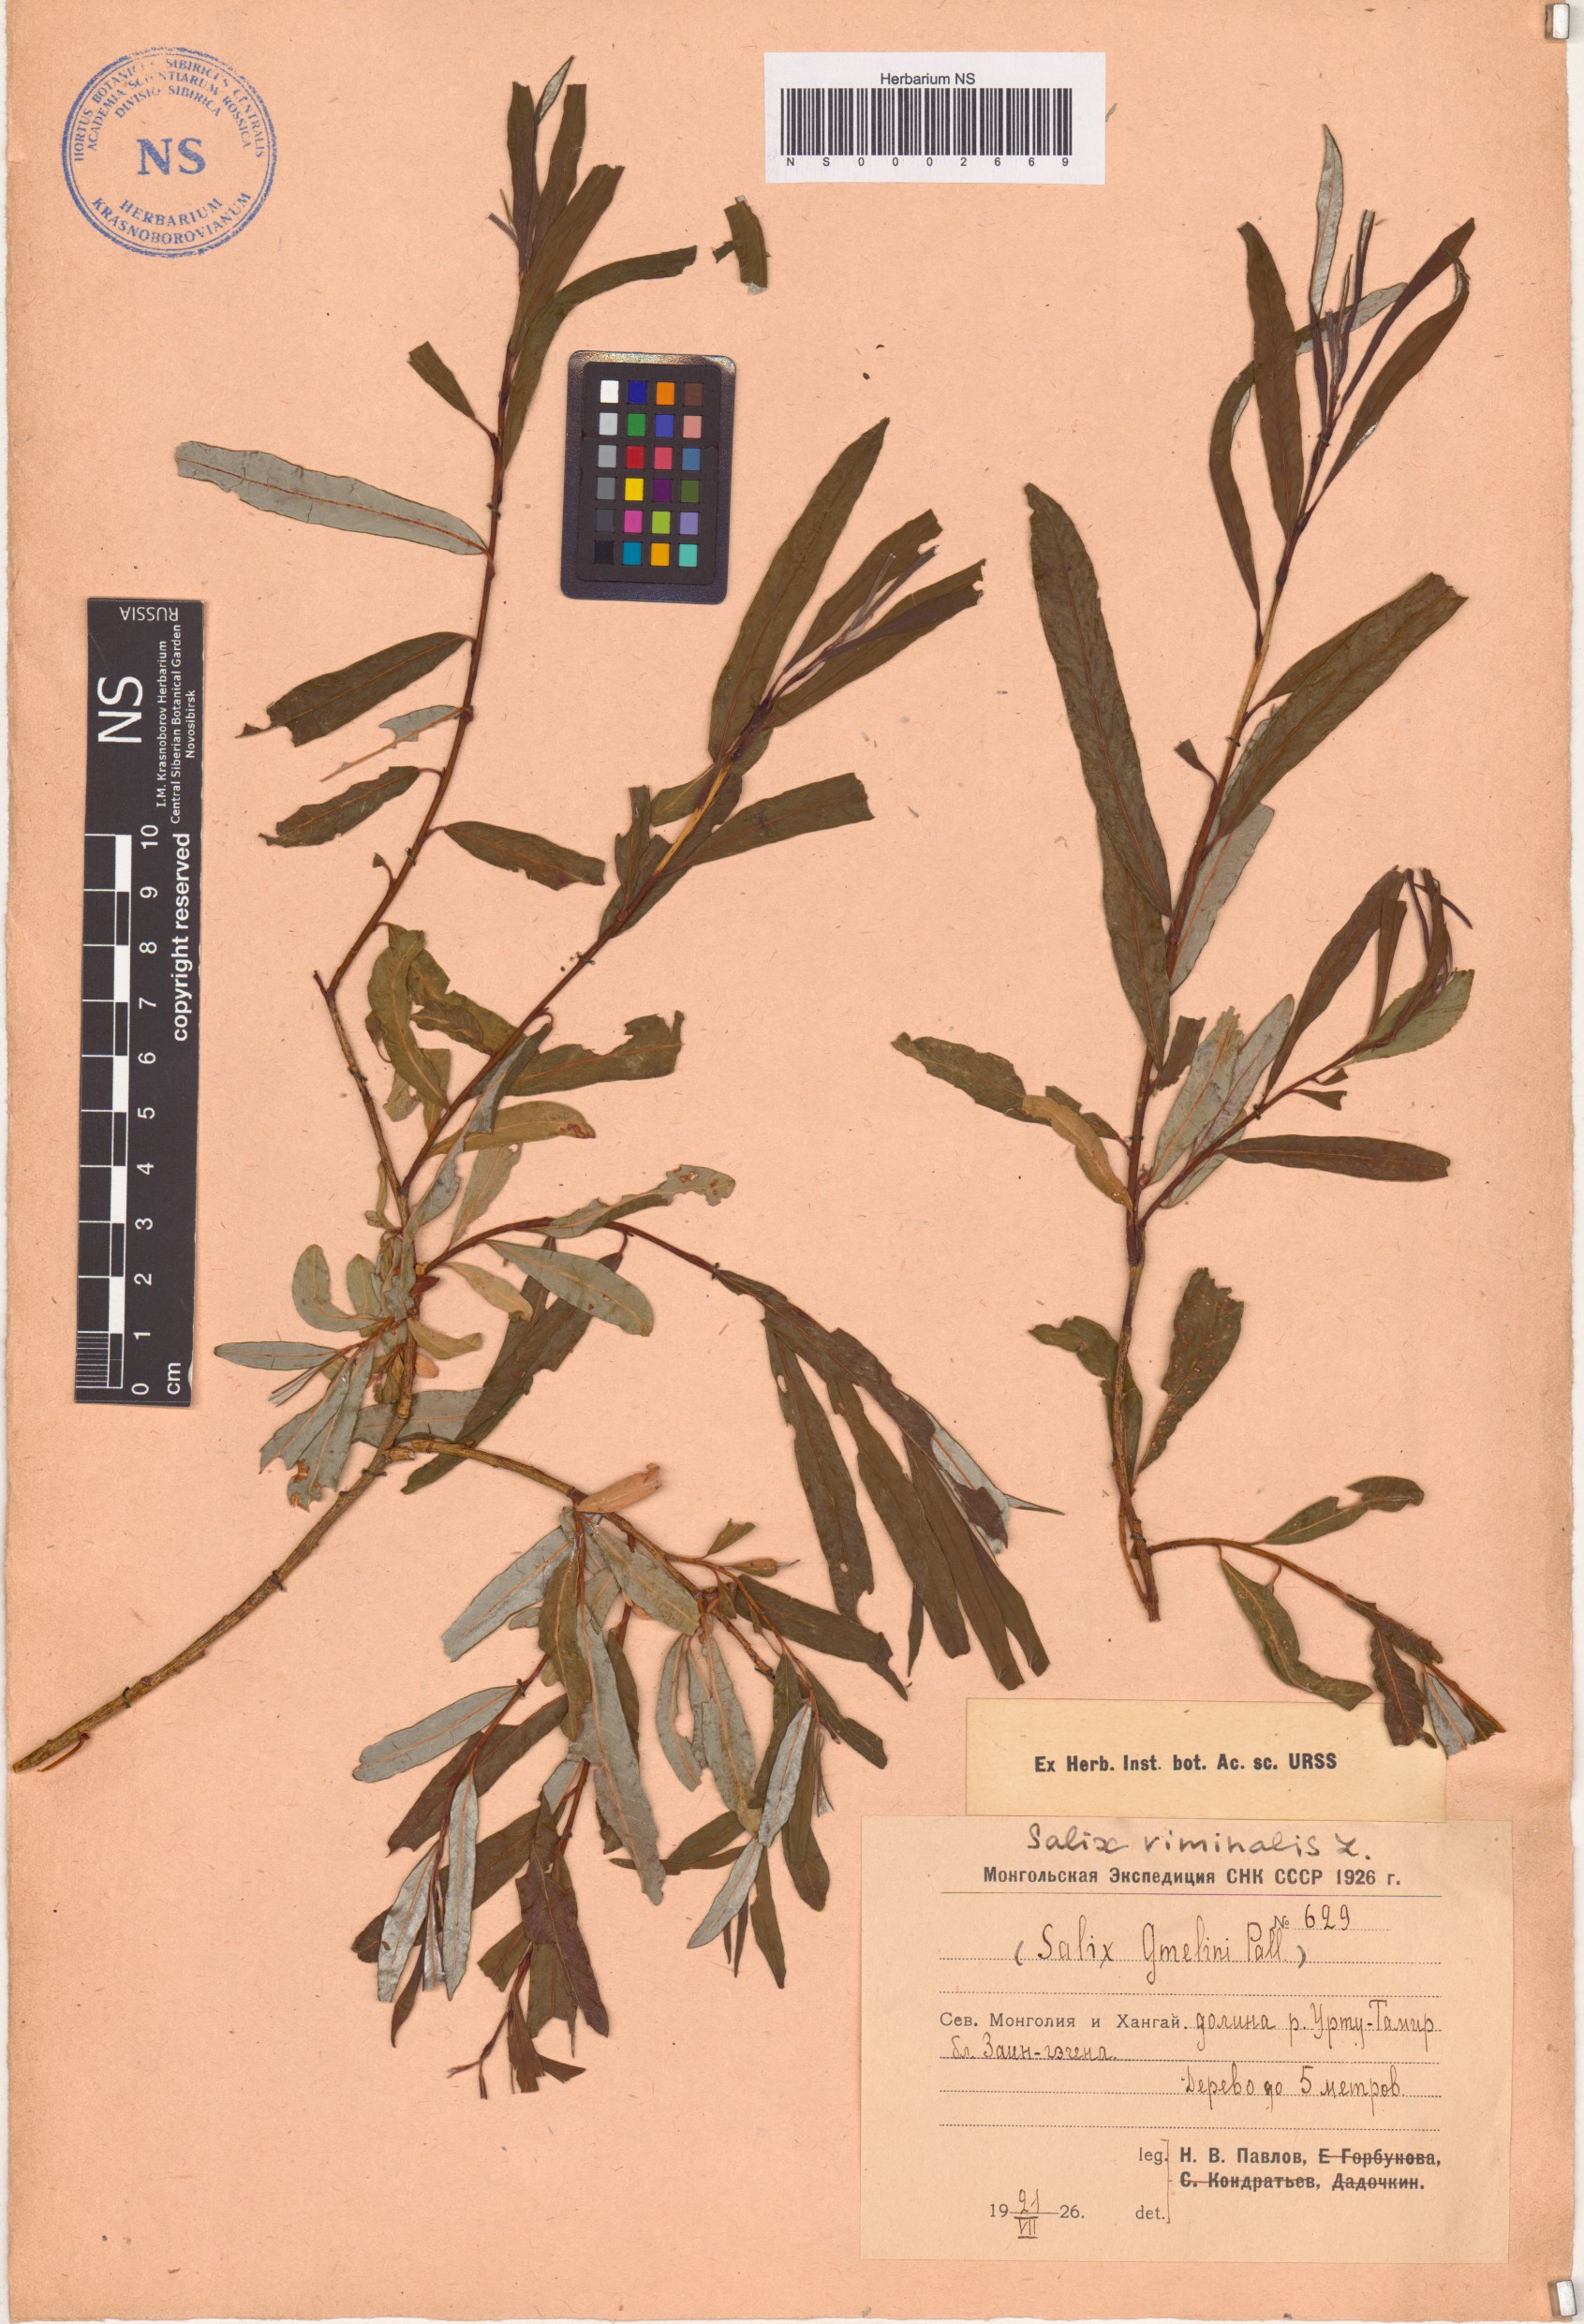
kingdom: Plantae
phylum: Tracheophyta
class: Magnoliopsida
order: Malpighiales
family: Salicaceae
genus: Salix
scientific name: Salix viminalis
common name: Osier
